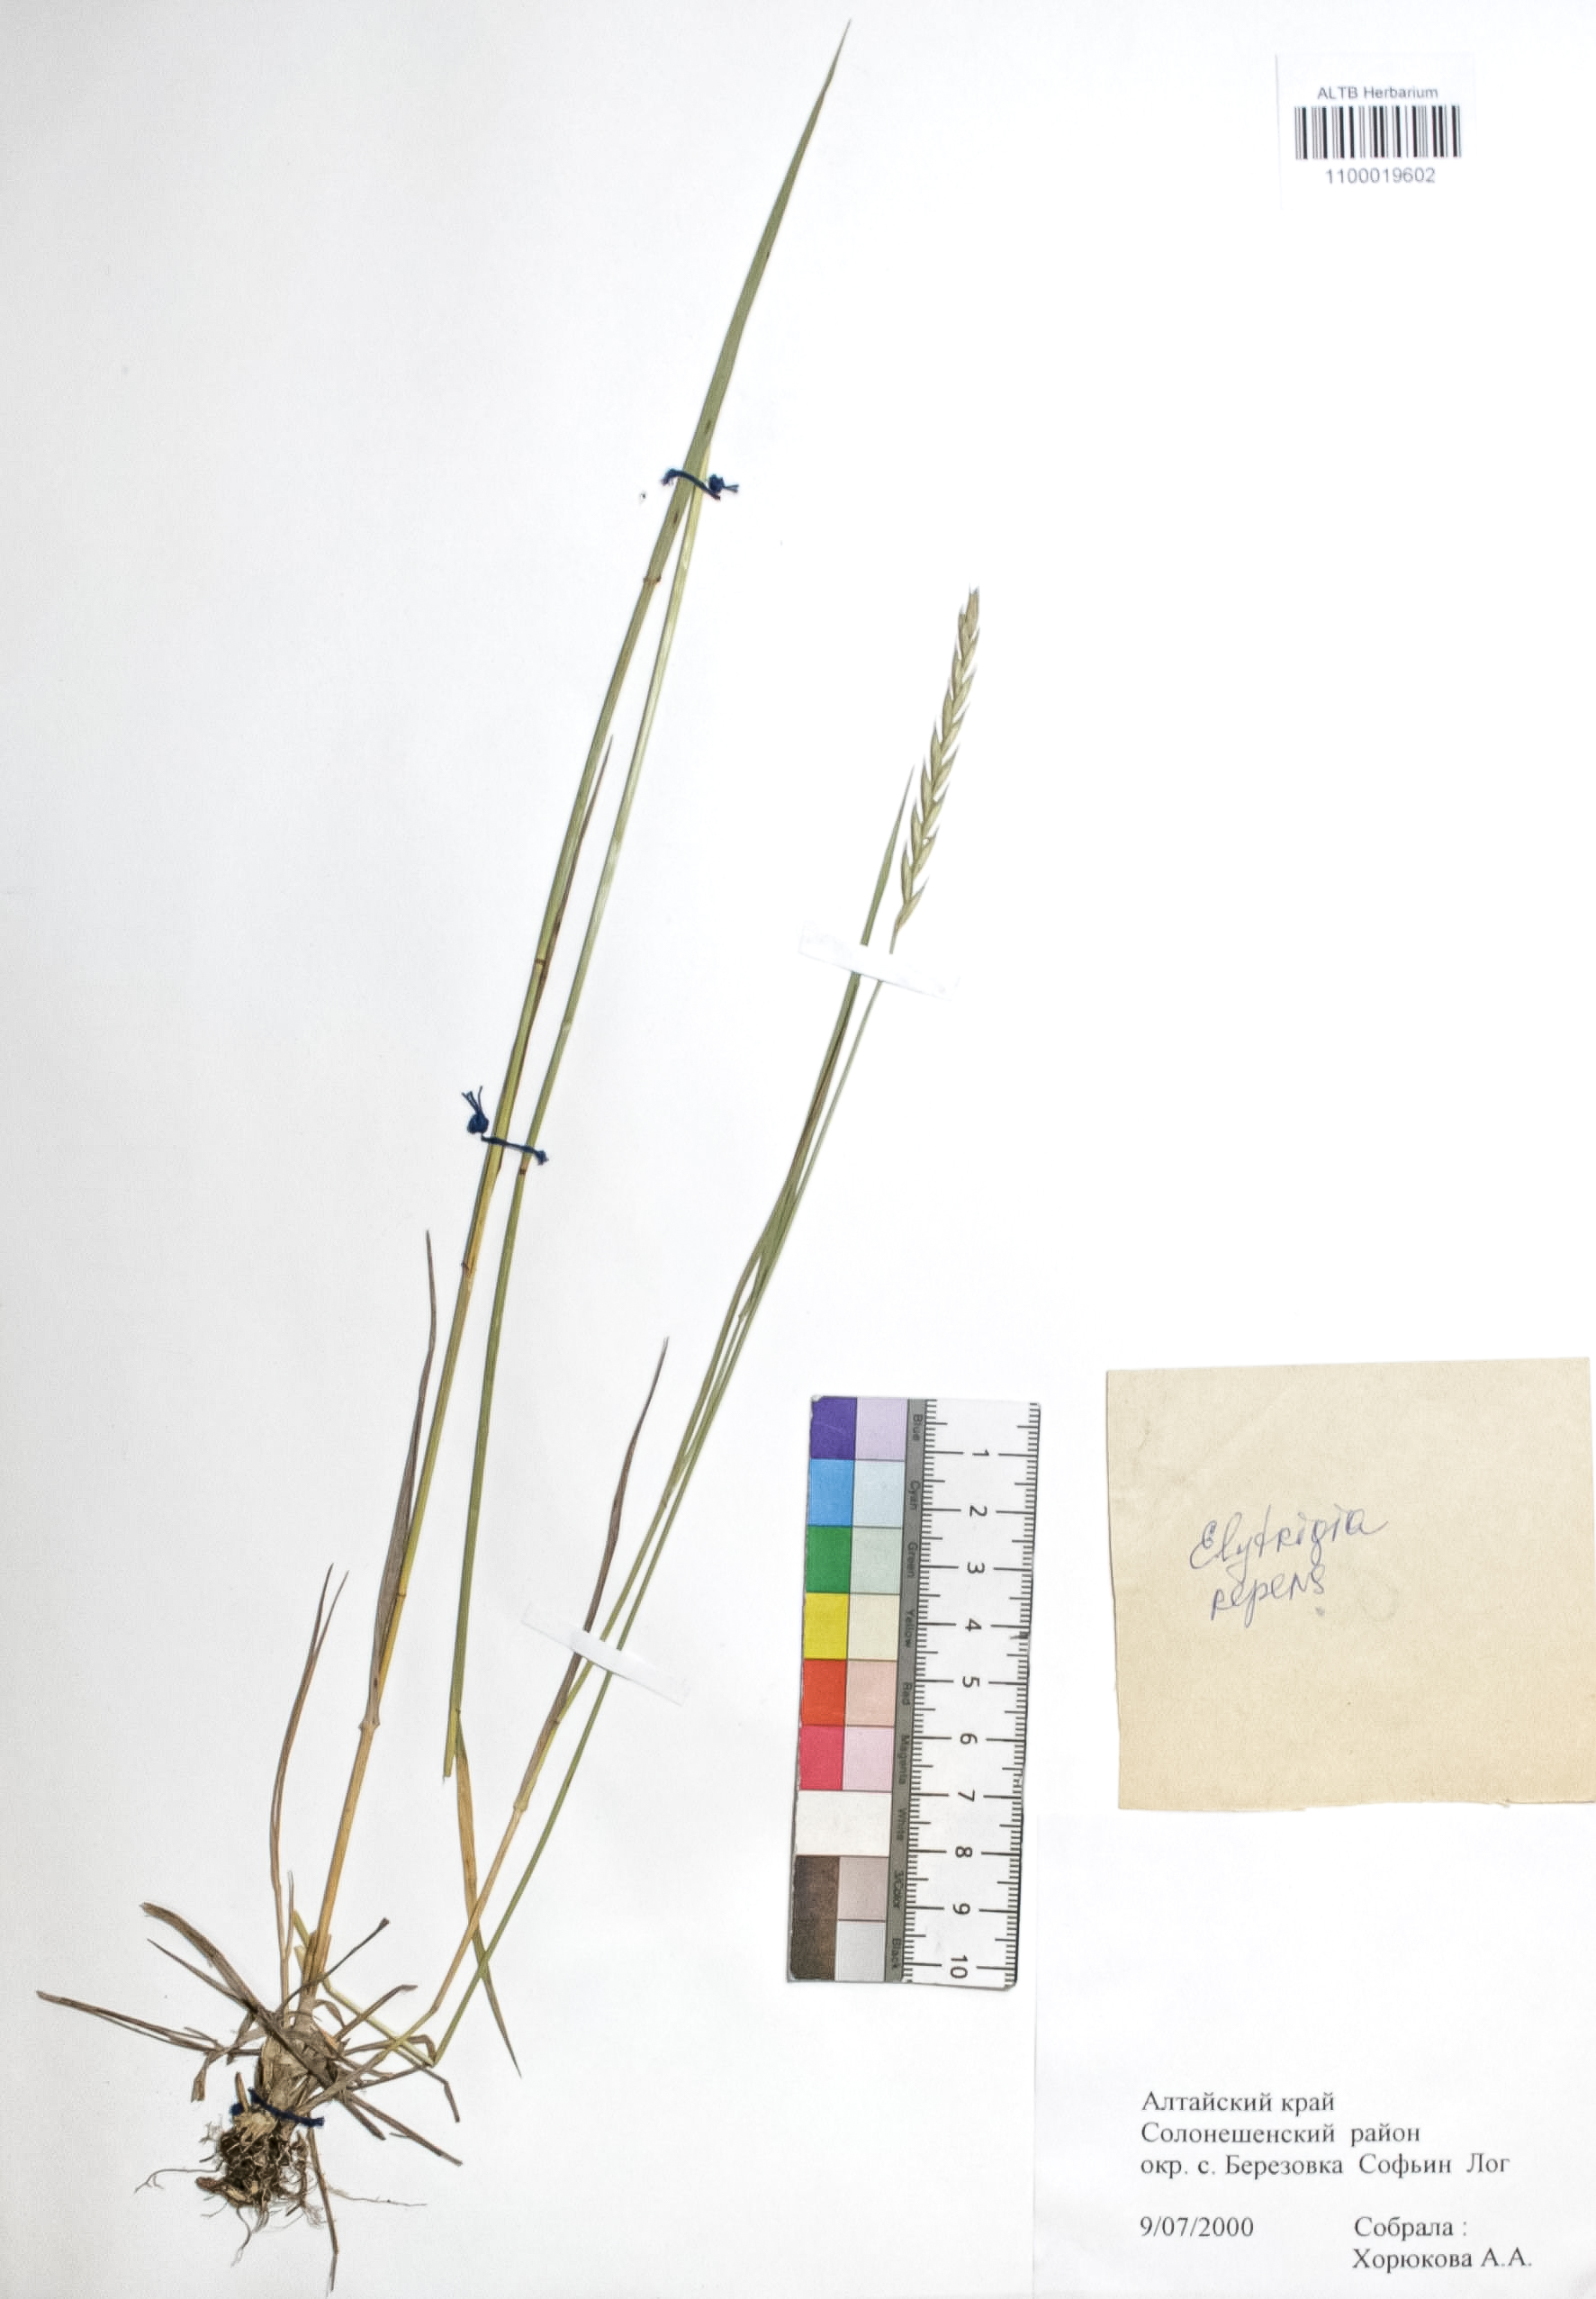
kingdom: Plantae
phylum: Tracheophyta
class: Liliopsida
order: Poales
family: Poaceae
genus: Elymus
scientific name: Elymus repens
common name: Quackgrass
